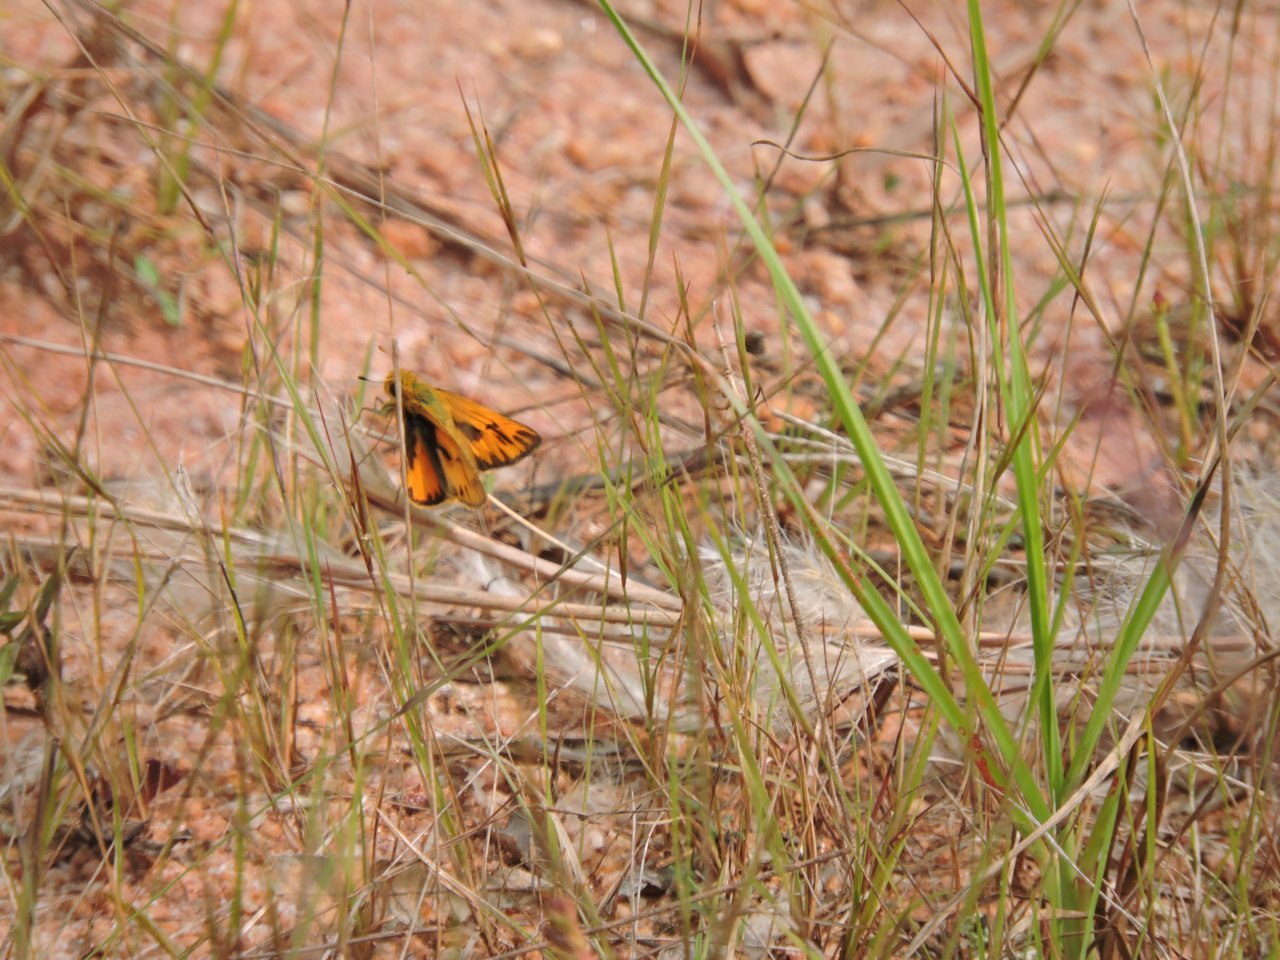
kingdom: Animalia
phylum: Arthropoda
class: Insecta
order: Lepidoptera
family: Hesperiidae
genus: Hylephila
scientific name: Hylephila phyleus
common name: Fiery Skipper
